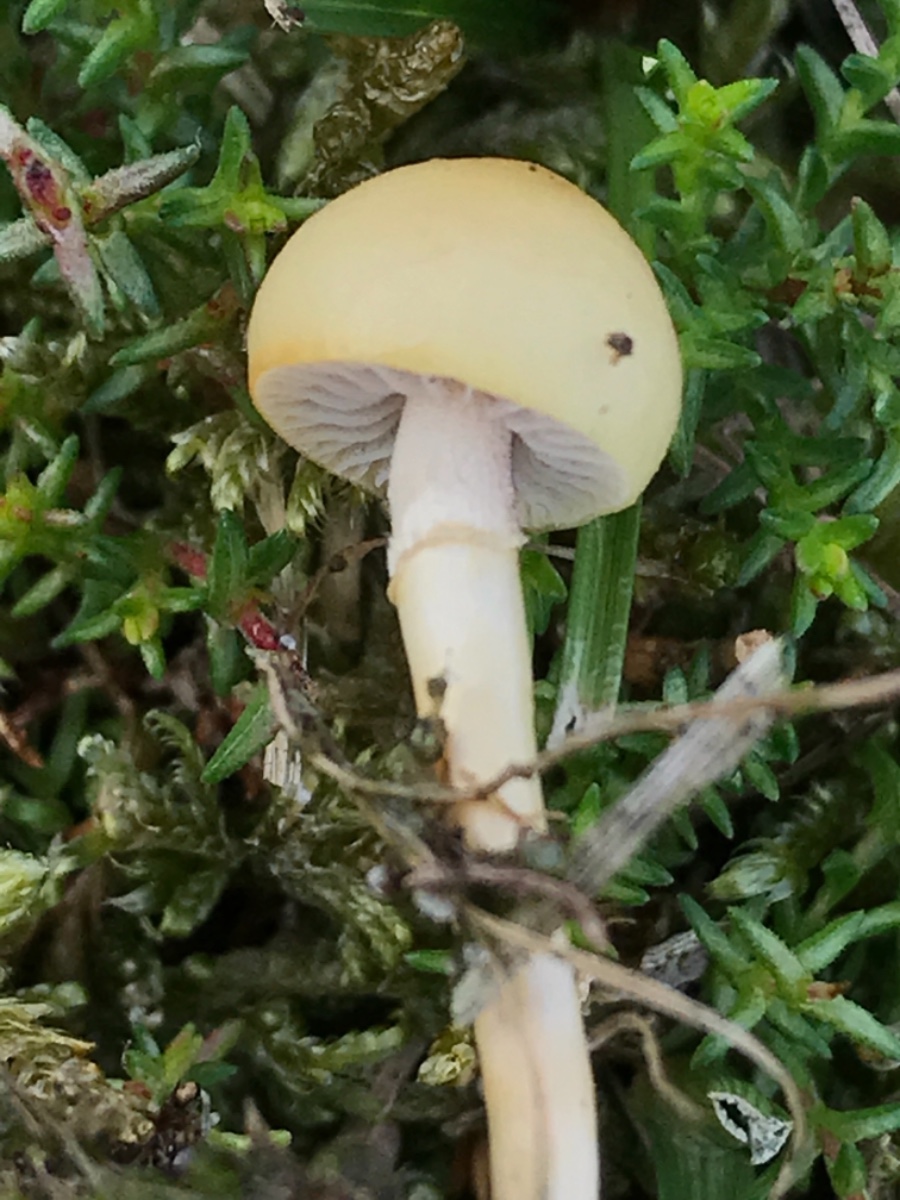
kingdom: Fungi
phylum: Basidiomycota
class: Agaricomycetes
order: Agaricales
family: Strophariaceae
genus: Protostropharia
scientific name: Protostropharia semiglobata
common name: halvkugleformet bredblad
